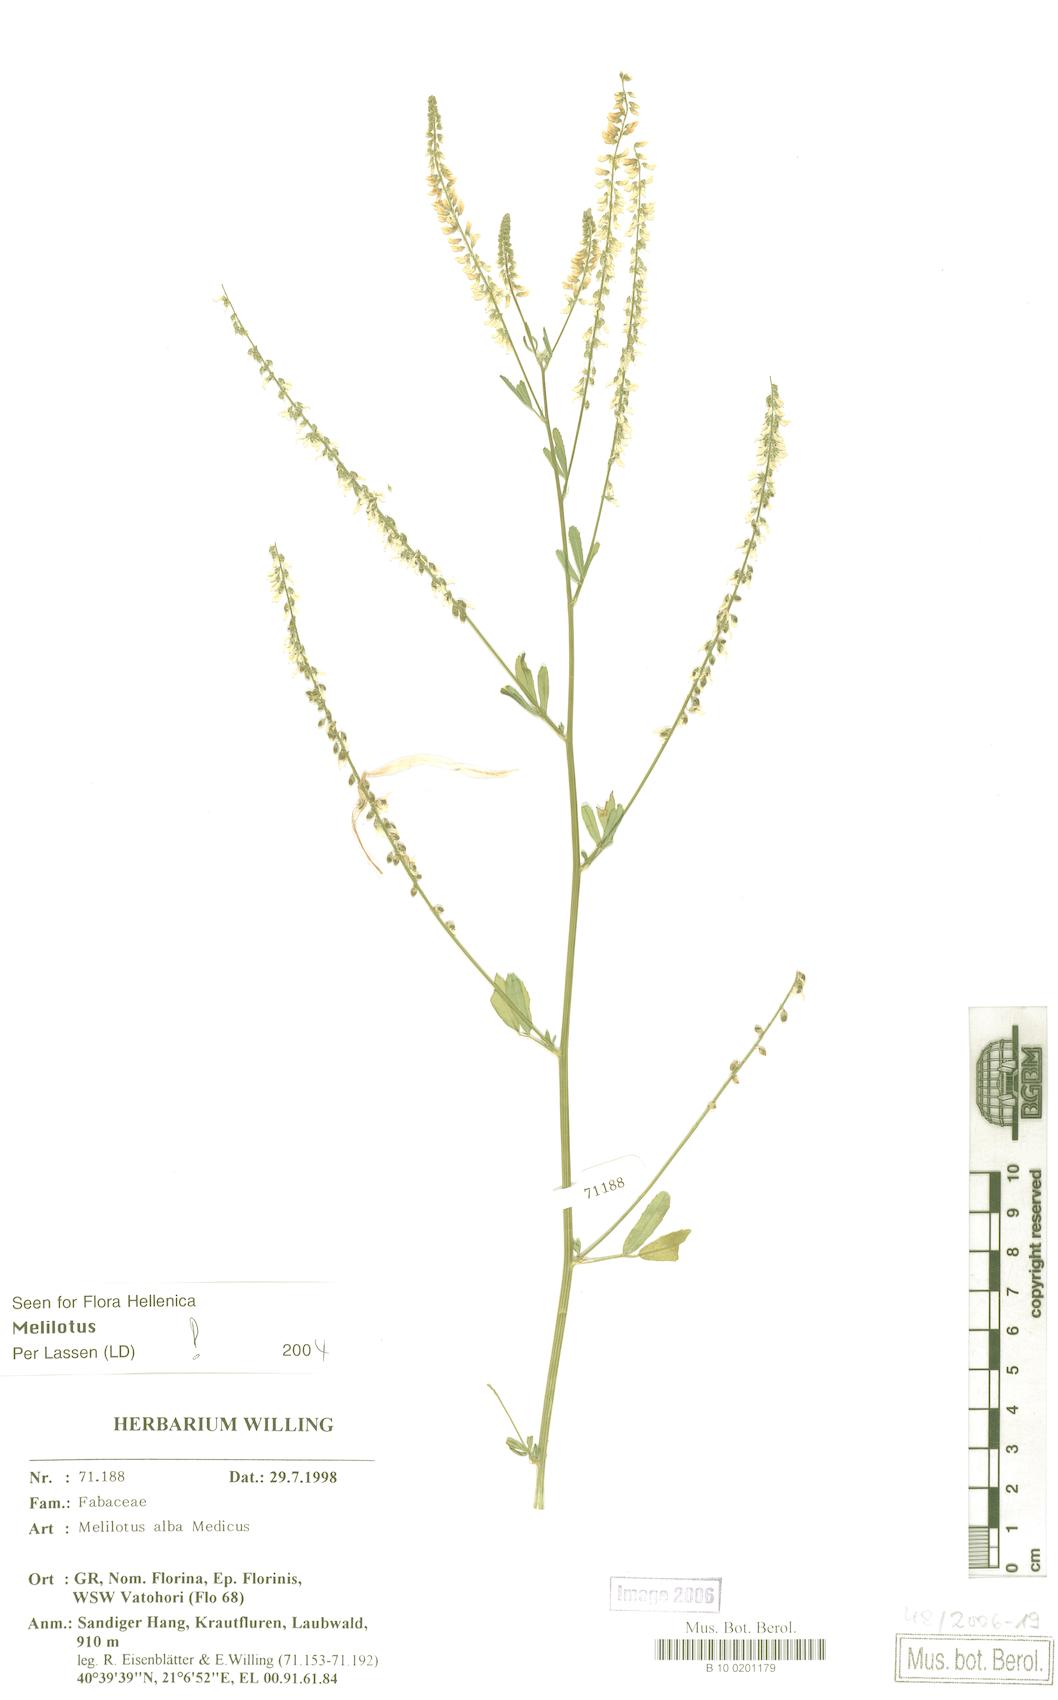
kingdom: Plantae
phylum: Tracheophyta
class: Magnoliopsida
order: Fabales
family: Fabaceae
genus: Melilotus
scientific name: Melilotus albus
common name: White melilot
